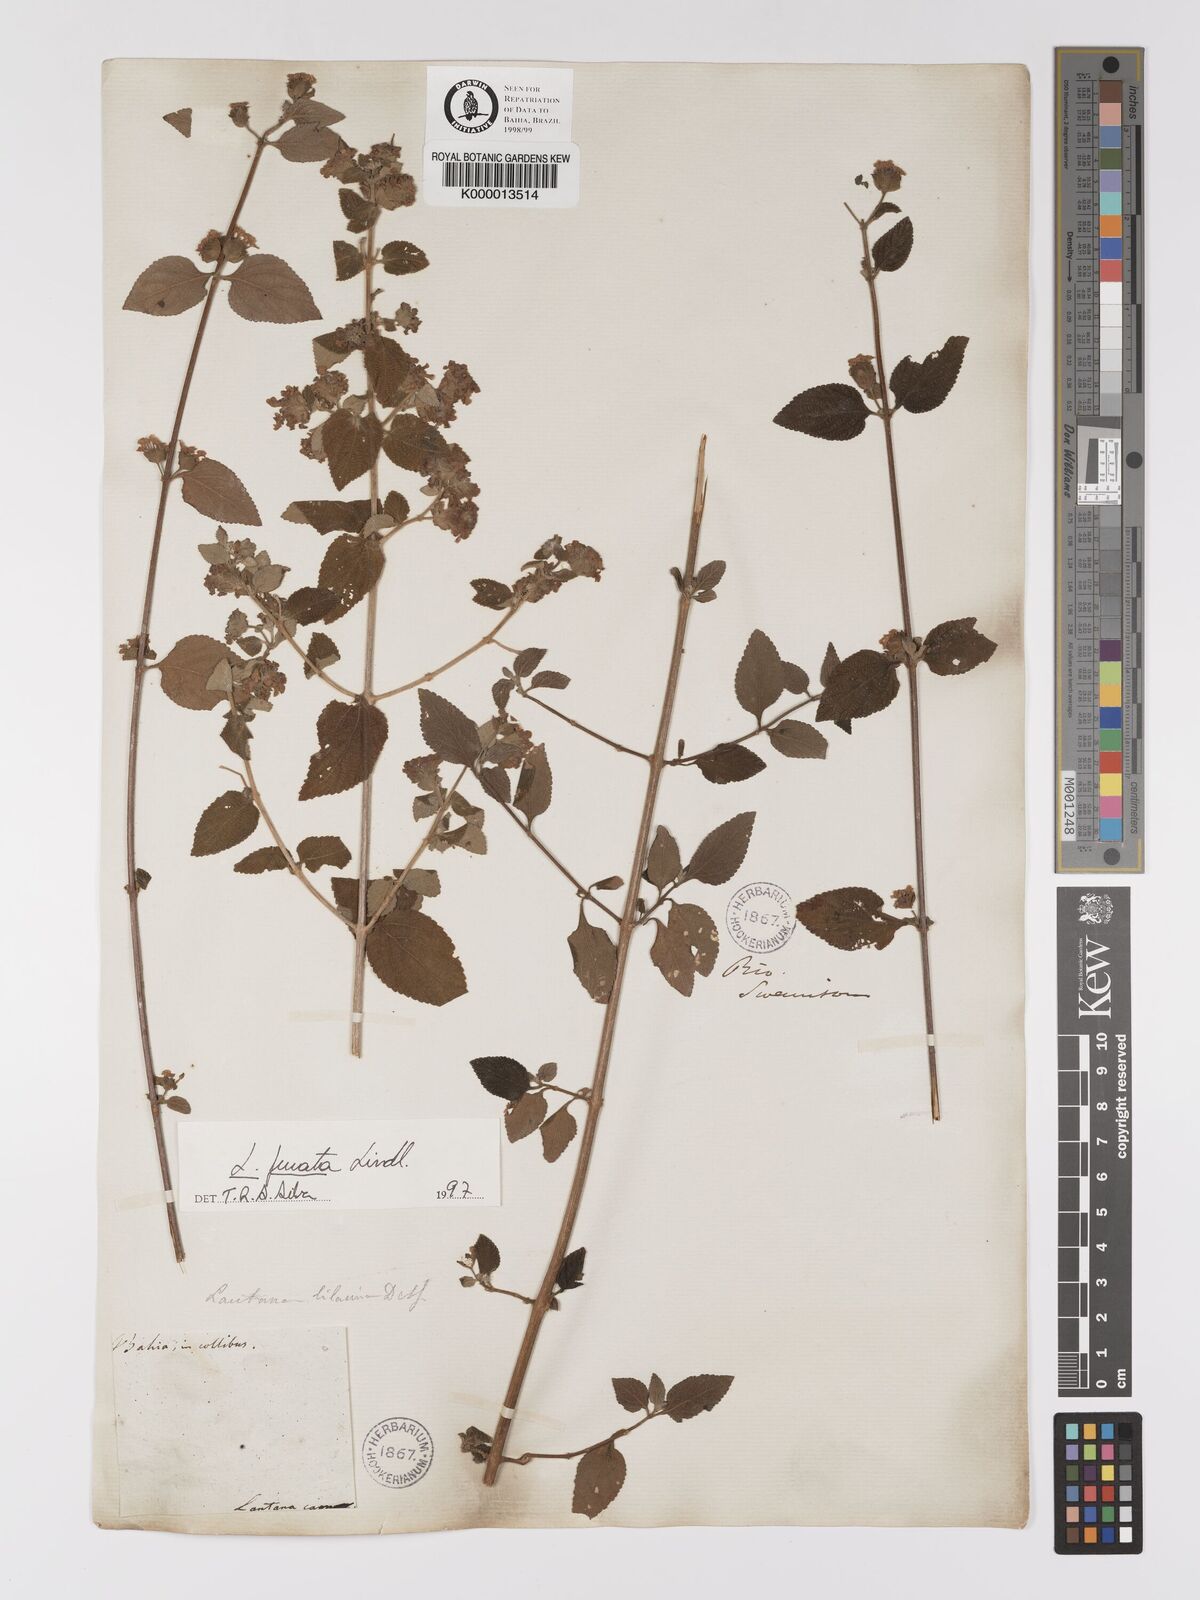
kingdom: Plantae
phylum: Tracheophyta
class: Magnoliopsida
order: Lamiales
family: Verbenaceae
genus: Lantana
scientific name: Lantana fucata
